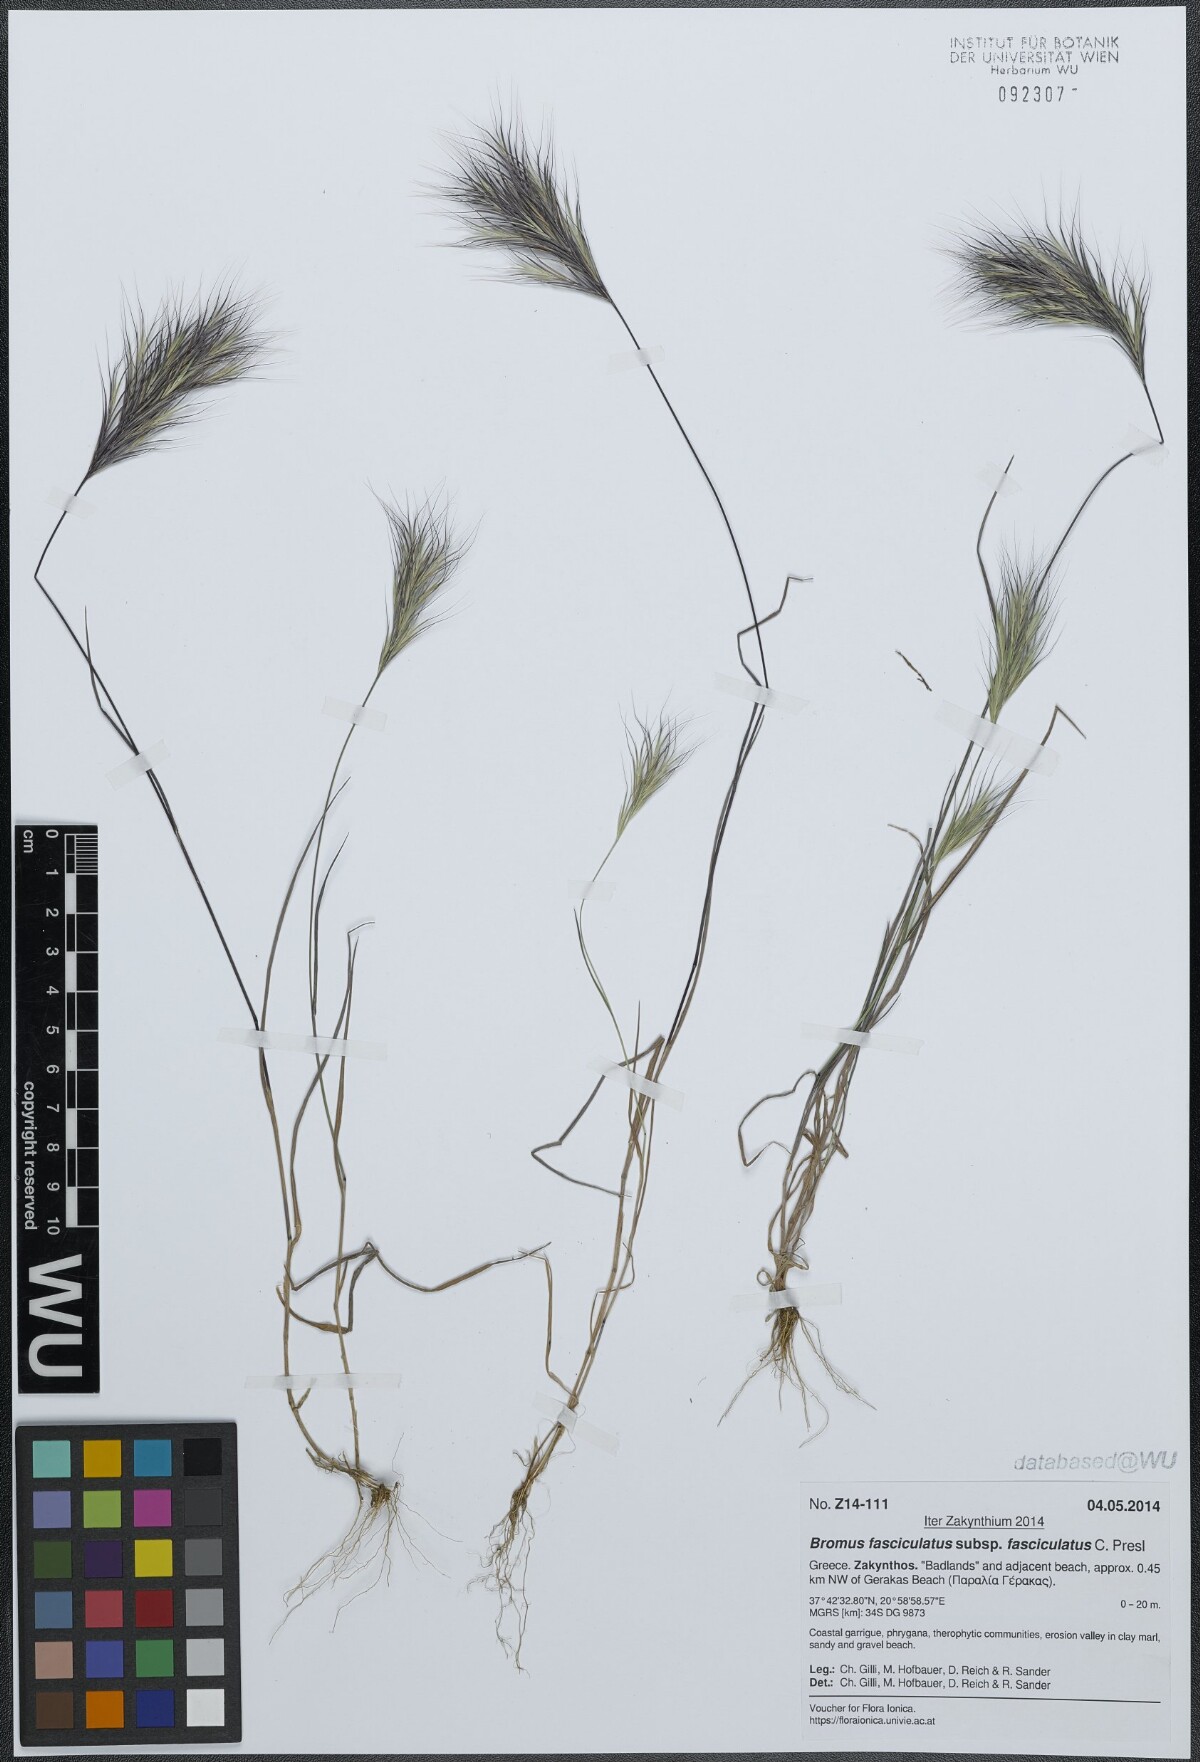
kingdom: Plantae
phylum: Tracheophyta
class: Liliopsida
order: Poales
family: Poaceae
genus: Bromus
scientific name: Bromus fasciculatus
